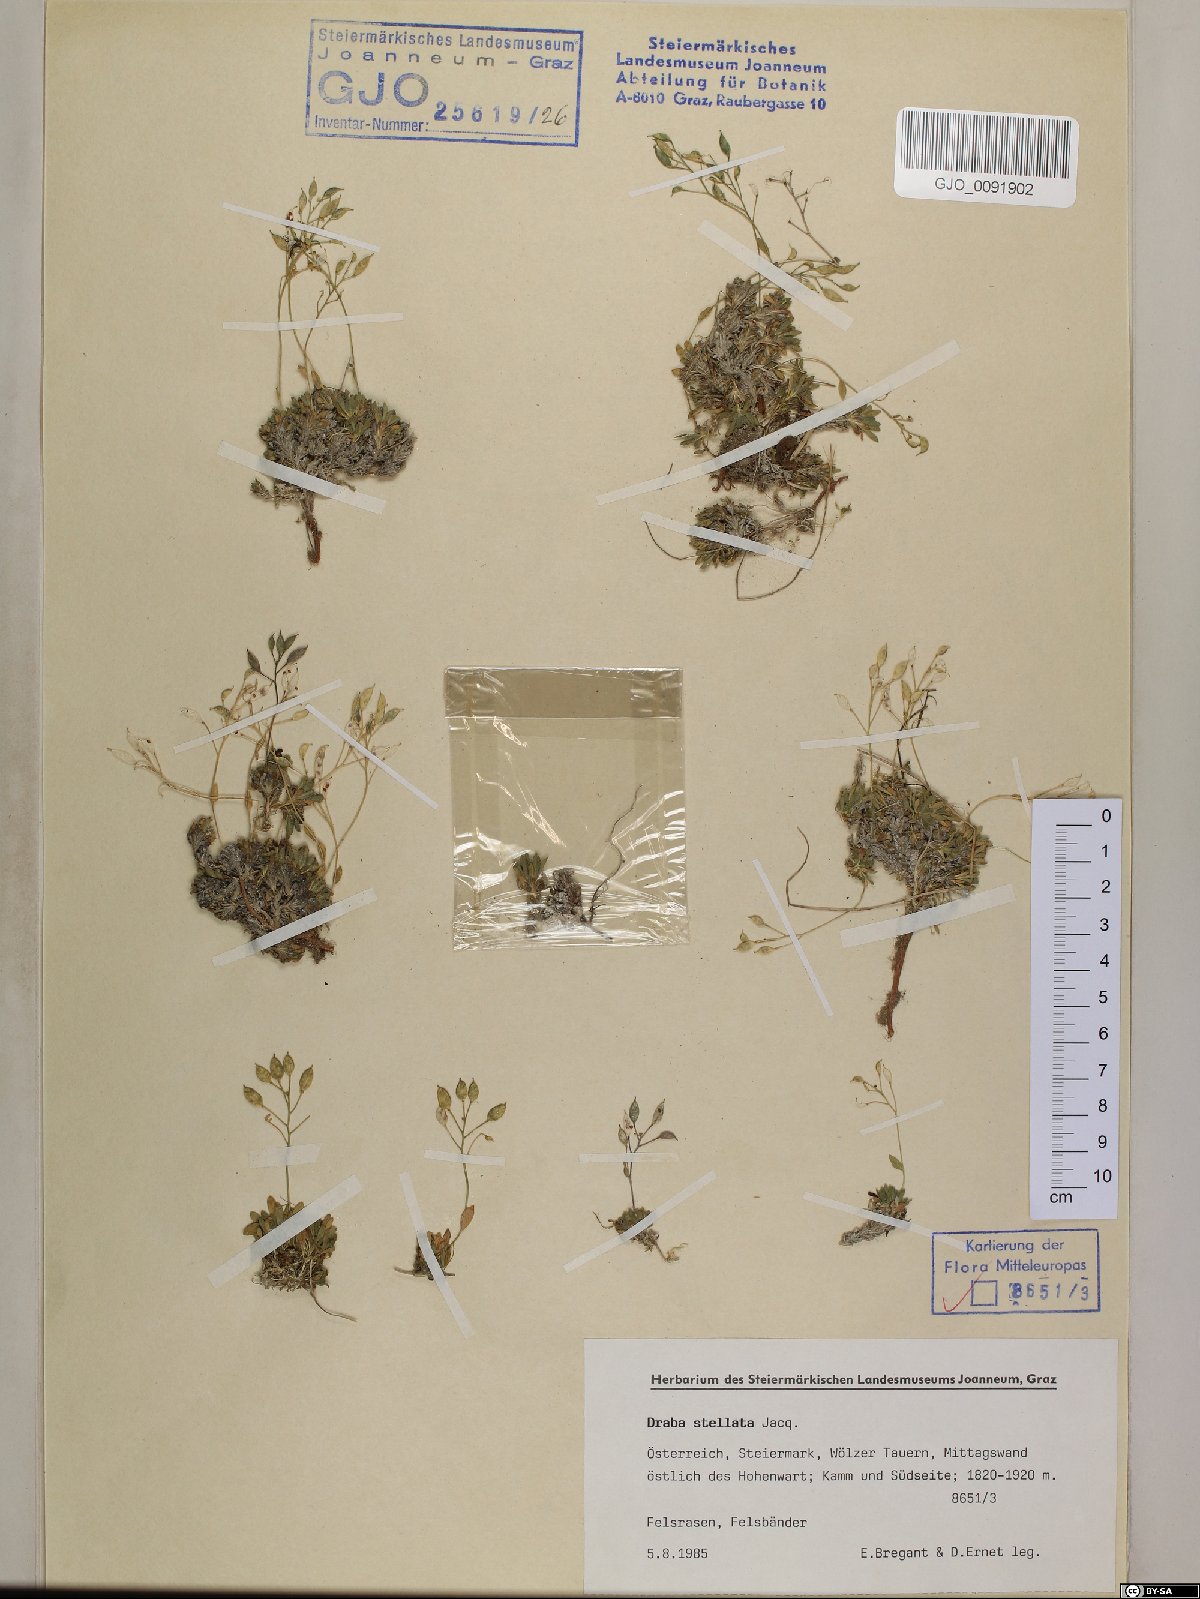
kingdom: Plantae
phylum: Tracheophyta
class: Magnoliopsida
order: Brassicales
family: Brassicaceae
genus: Draba
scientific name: Draba stellata
